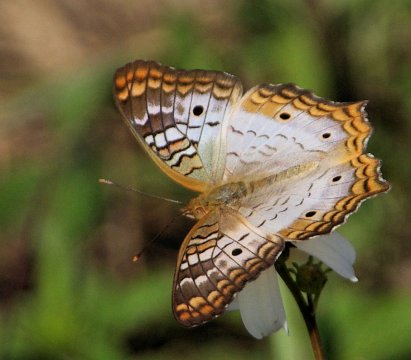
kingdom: Animalia
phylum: Arthropoda
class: Insecta
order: Lepidoptera
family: Nymphalidae
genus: Anartia
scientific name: Anartia jatrophae
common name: White Peacock
